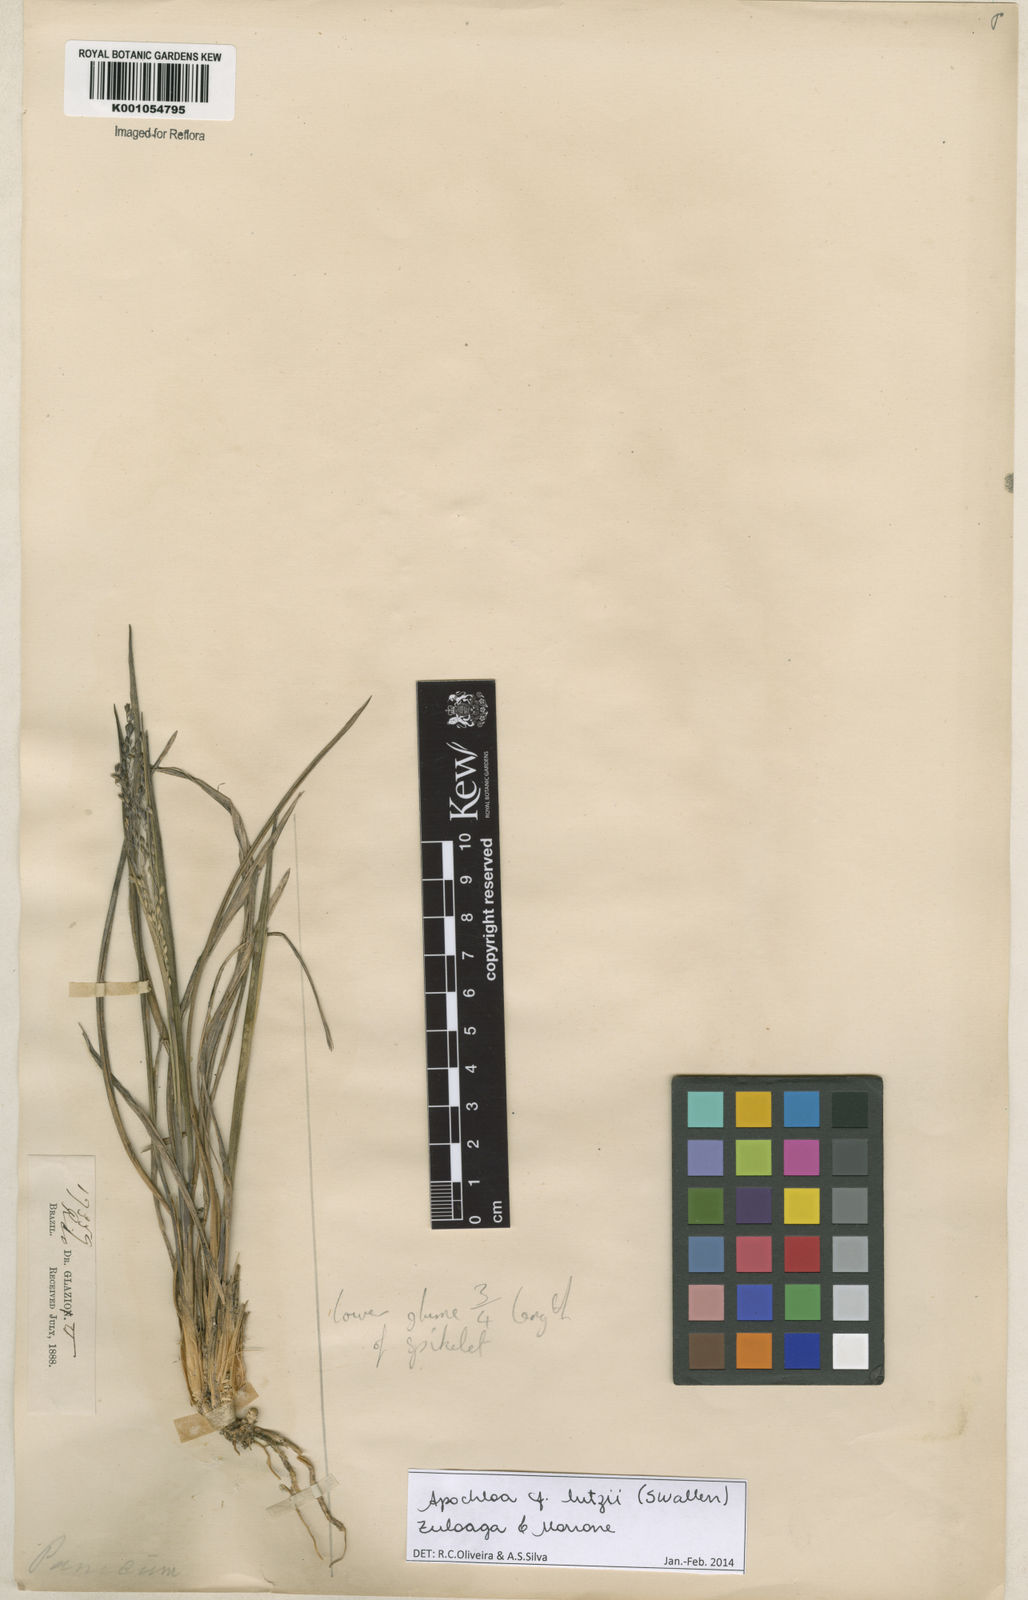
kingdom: Plantae
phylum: Tracheophyta
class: Liliopsida
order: Poales
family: Poaceae
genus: Apochloa
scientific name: Apochloa lutzii
